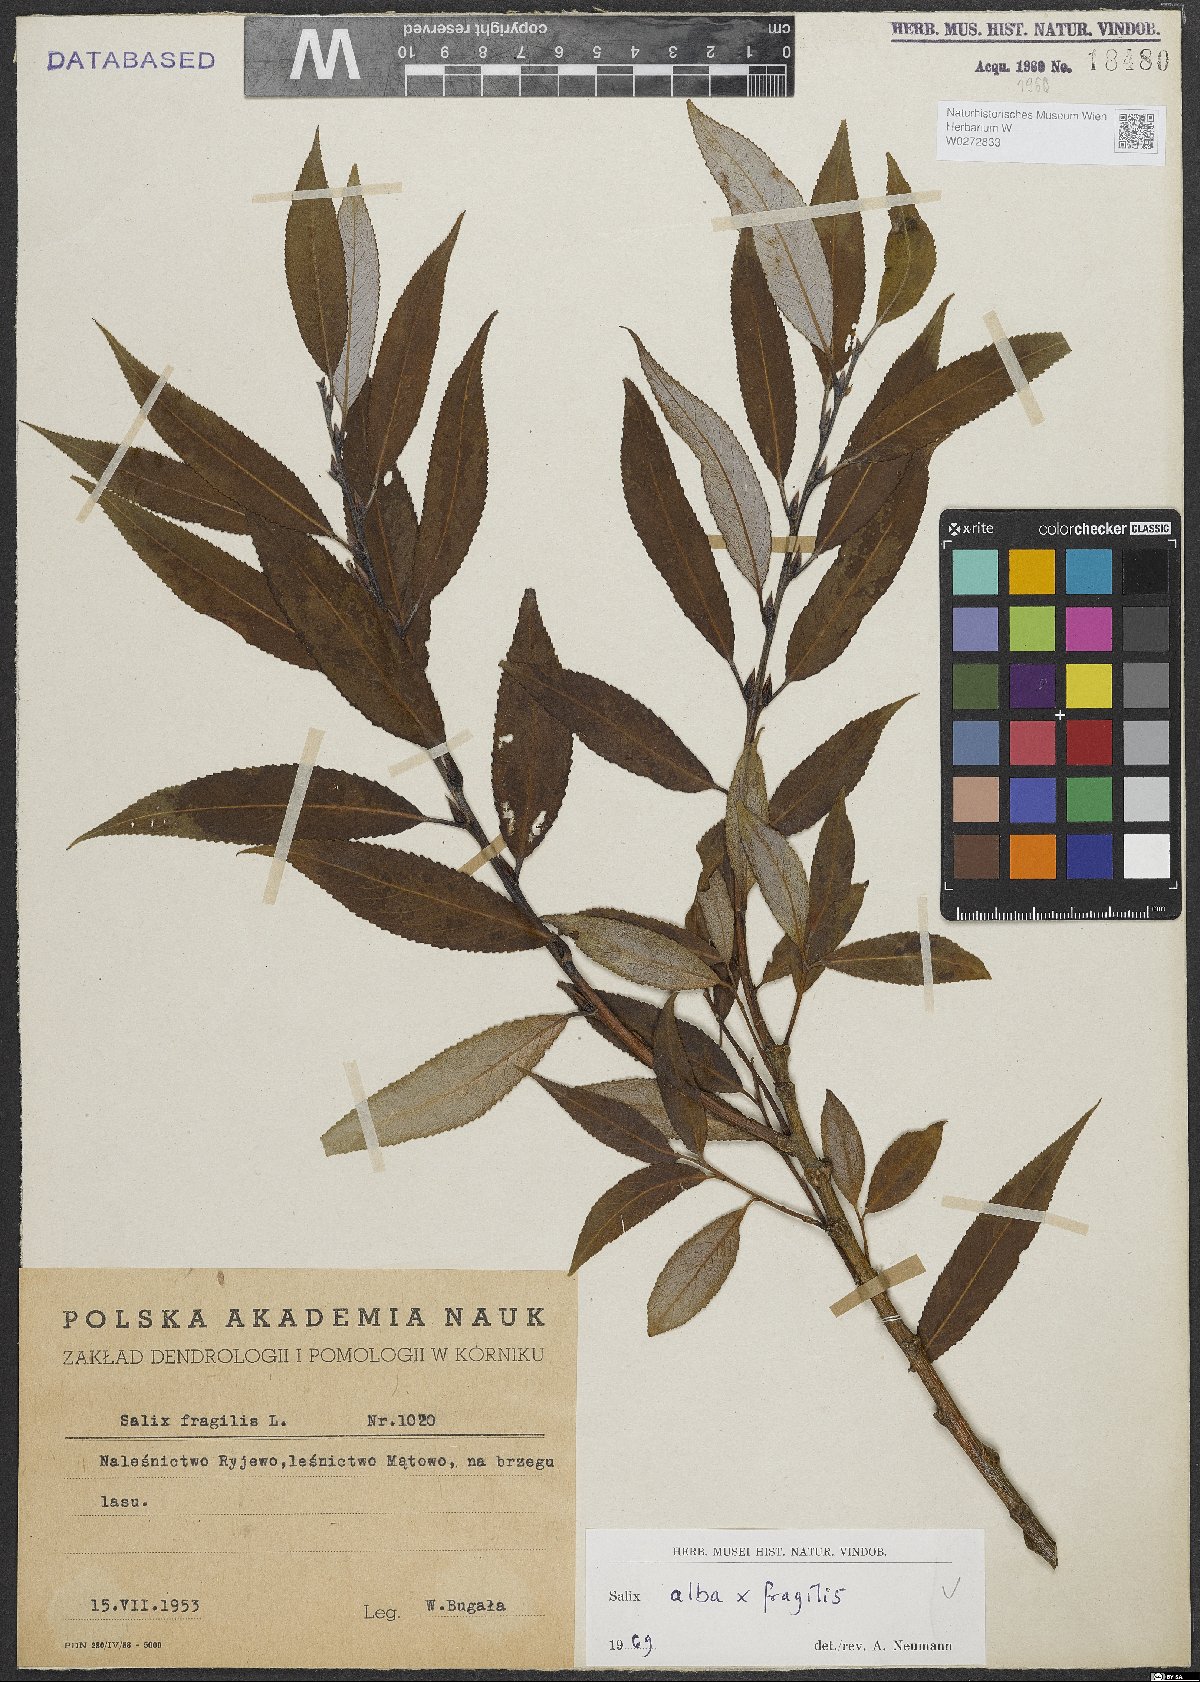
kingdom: Plantae
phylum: Tracheophyta
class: Magnoliopsida
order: Malpighiales
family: Salicaceae
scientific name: Salicaceae
